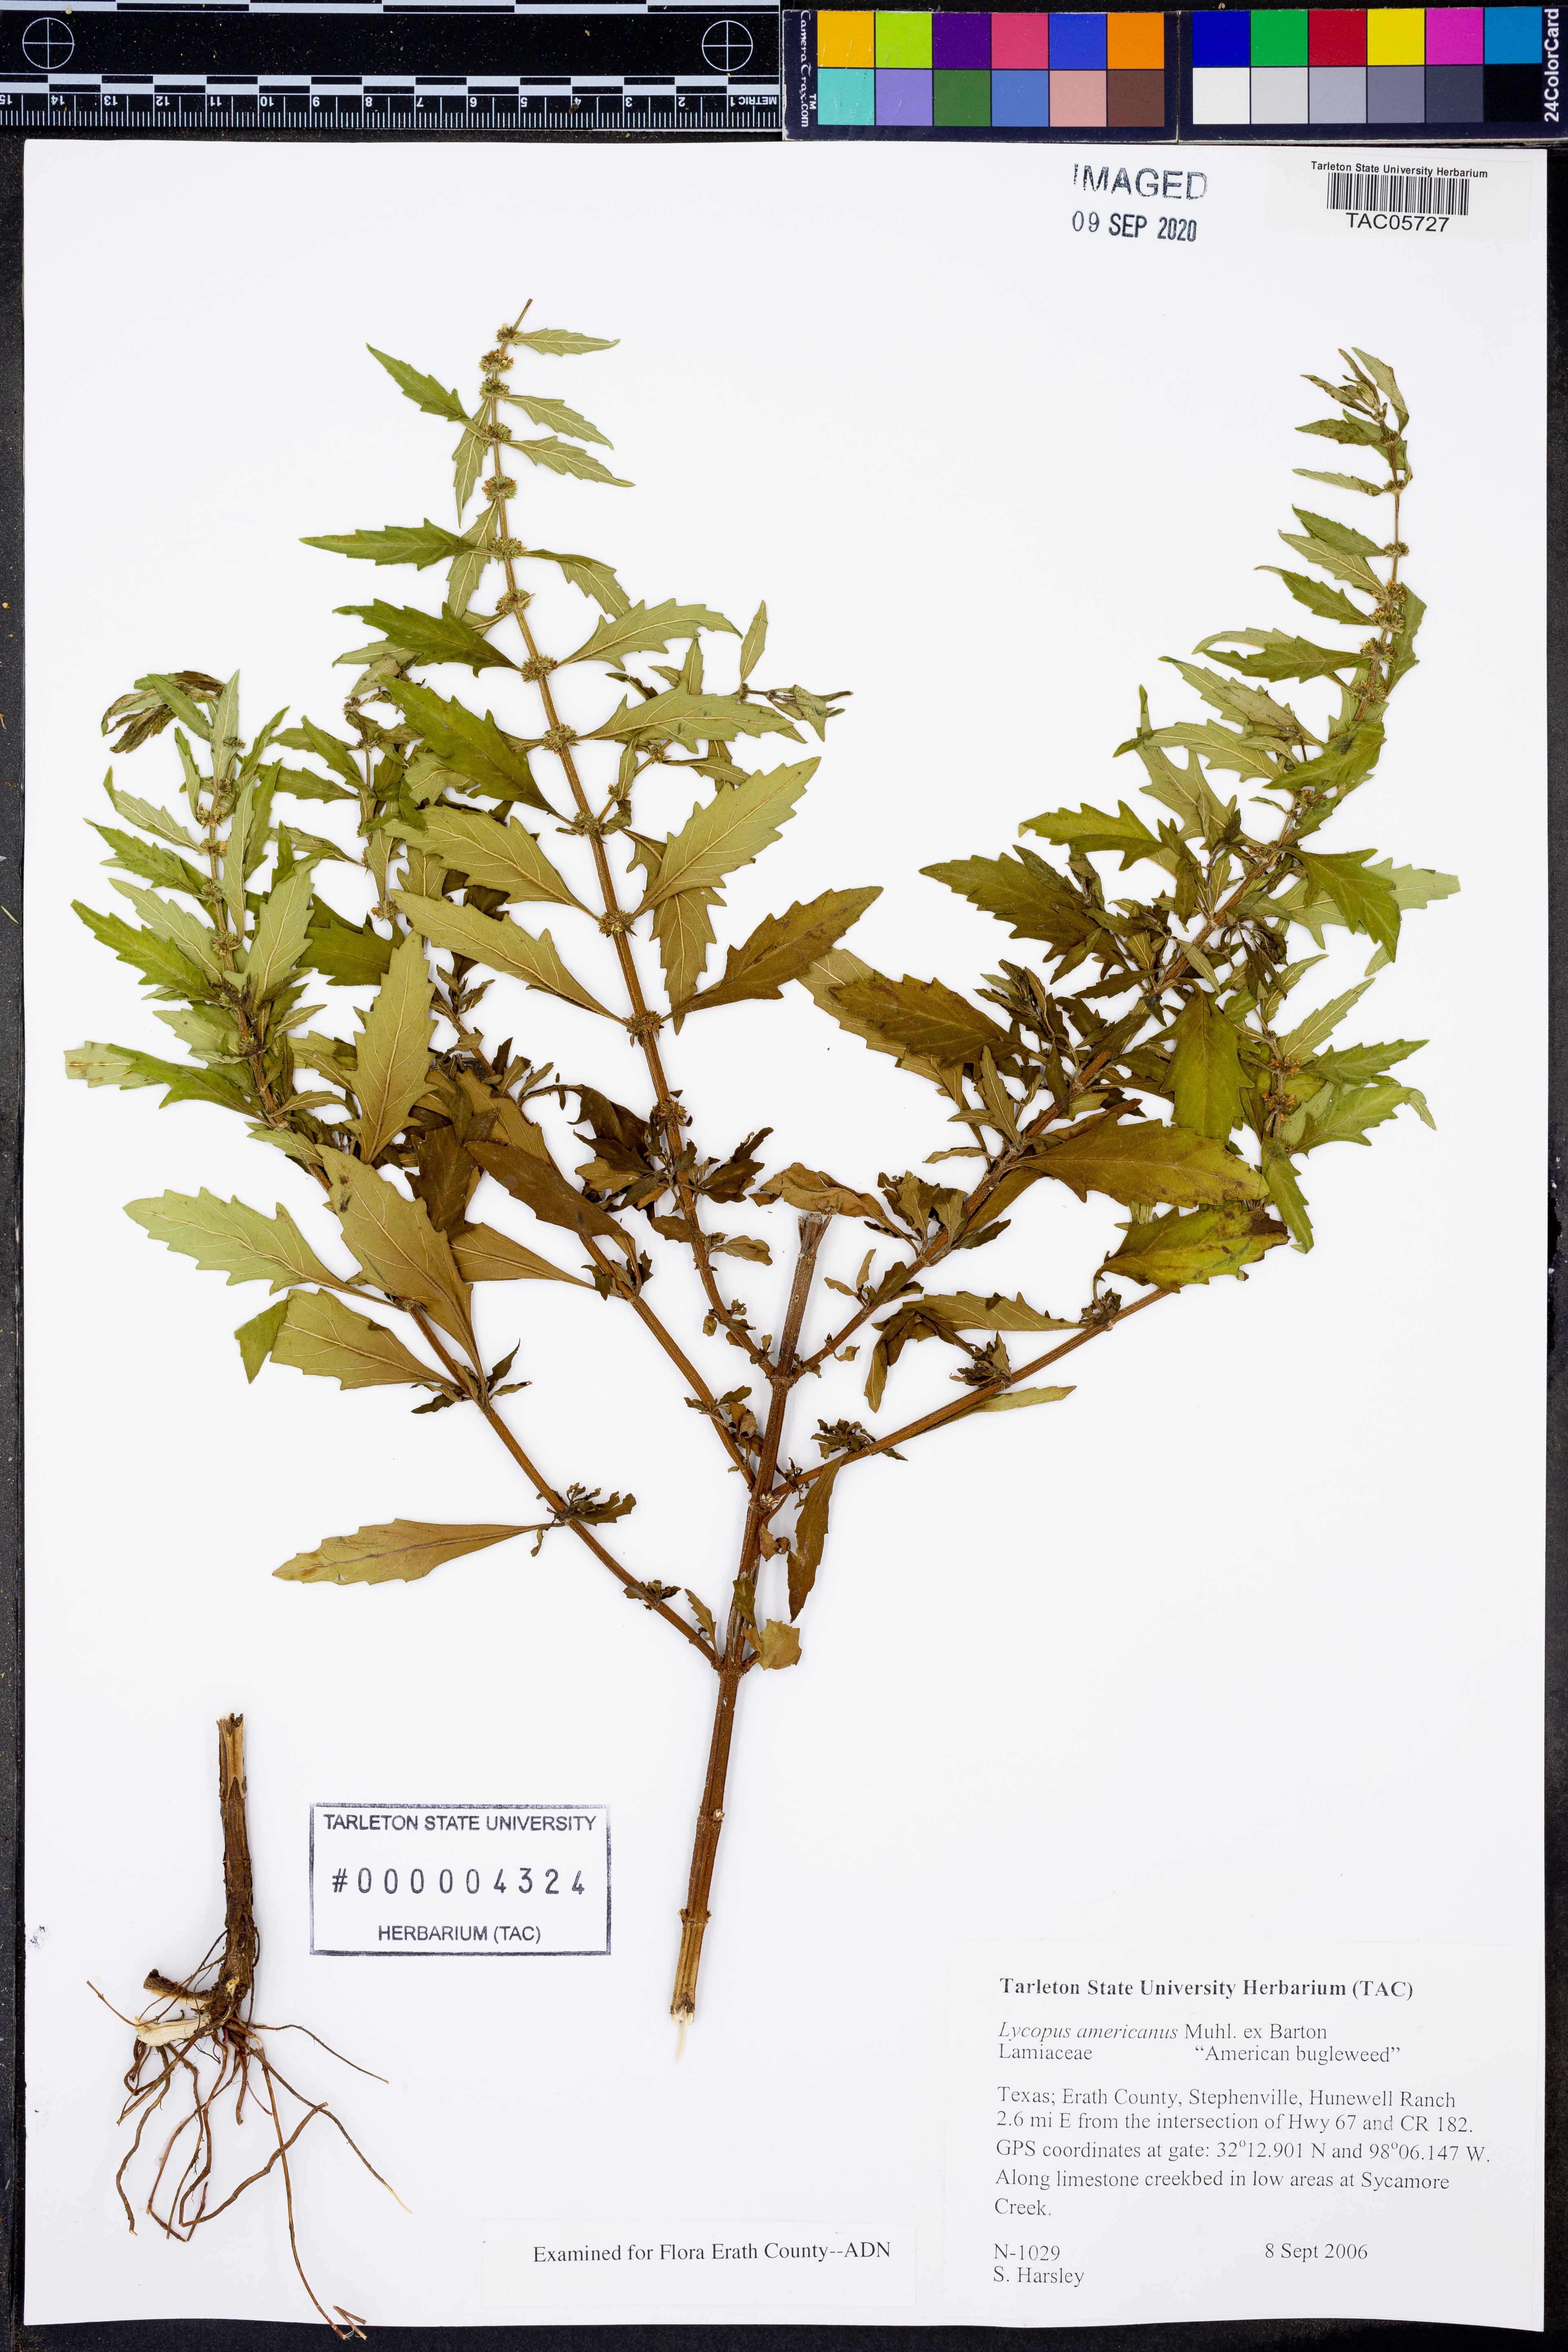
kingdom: Plantae
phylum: Tracheophyta
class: Magnoliopsida
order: Lamiales
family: Lamiaceae
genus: Lycopus
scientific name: Lycopus americanus
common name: American bugleweed
